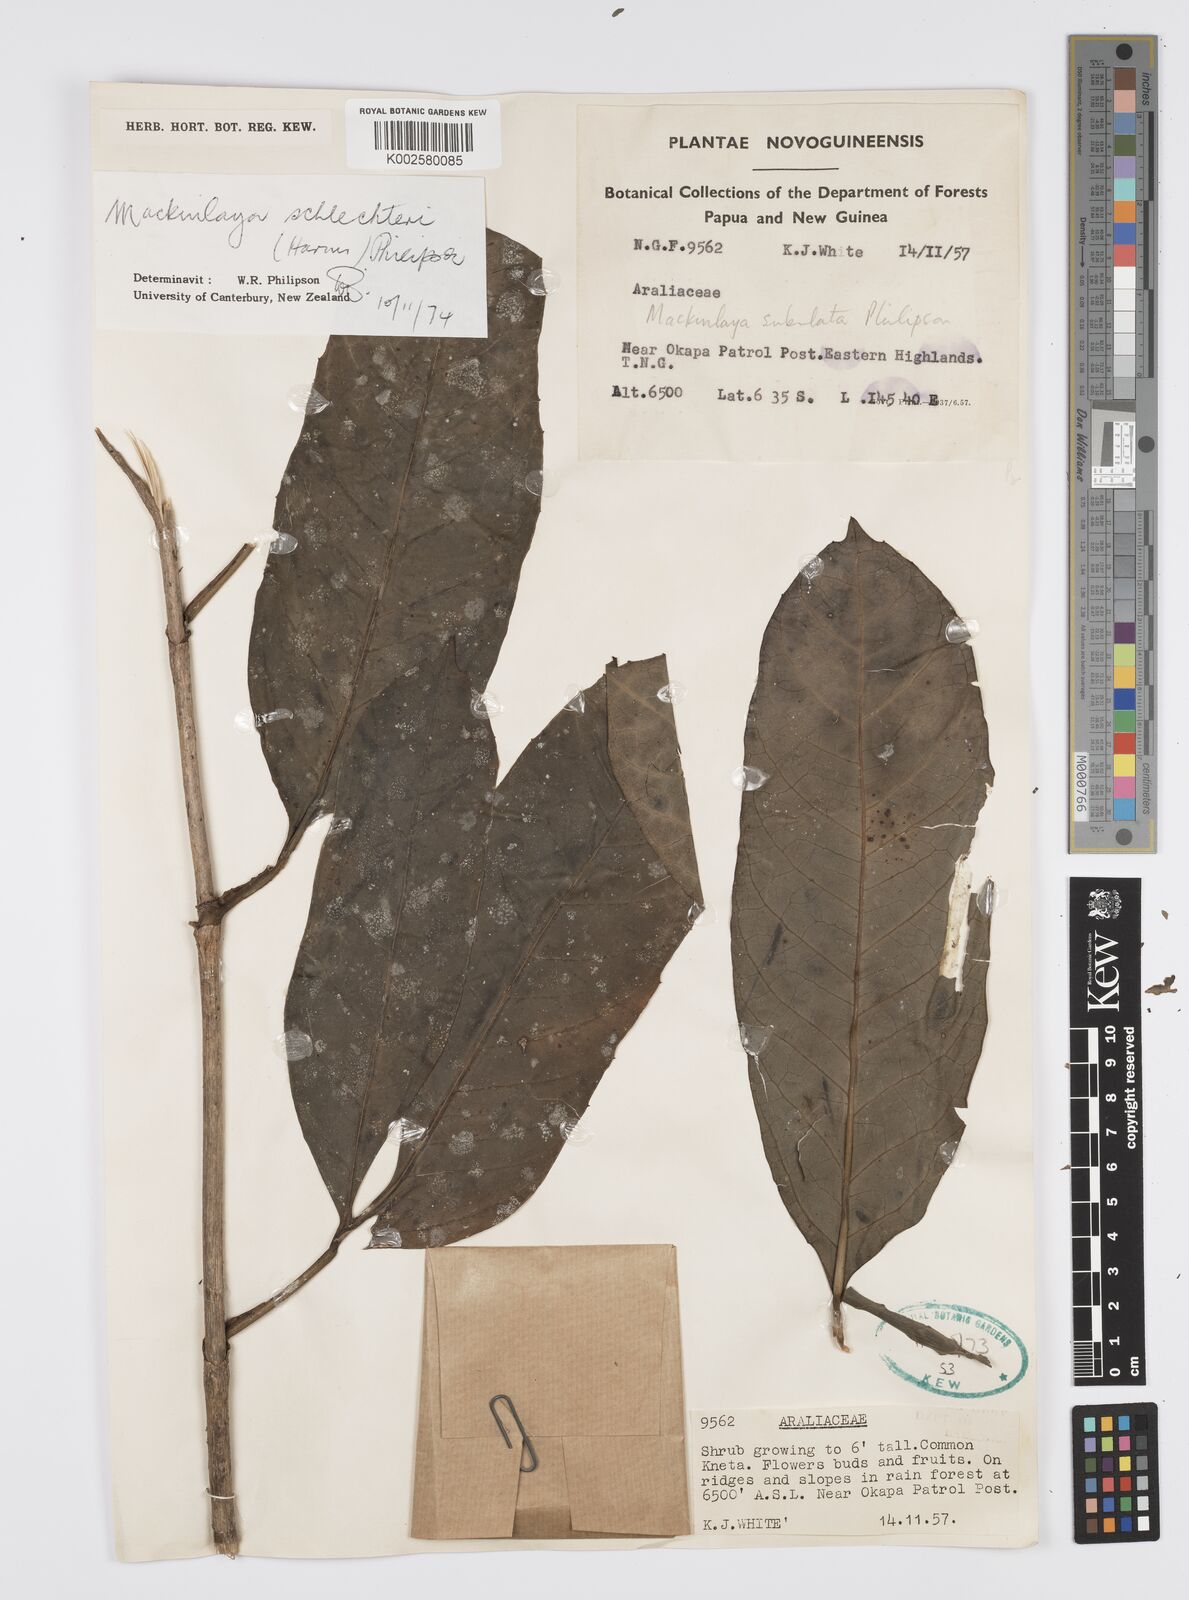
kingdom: Plantae
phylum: Tracheophyta
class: Magnoliopsida
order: Apiales
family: Apiaceae
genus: Mackinlaya
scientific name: Mackinlaya schlechteri
